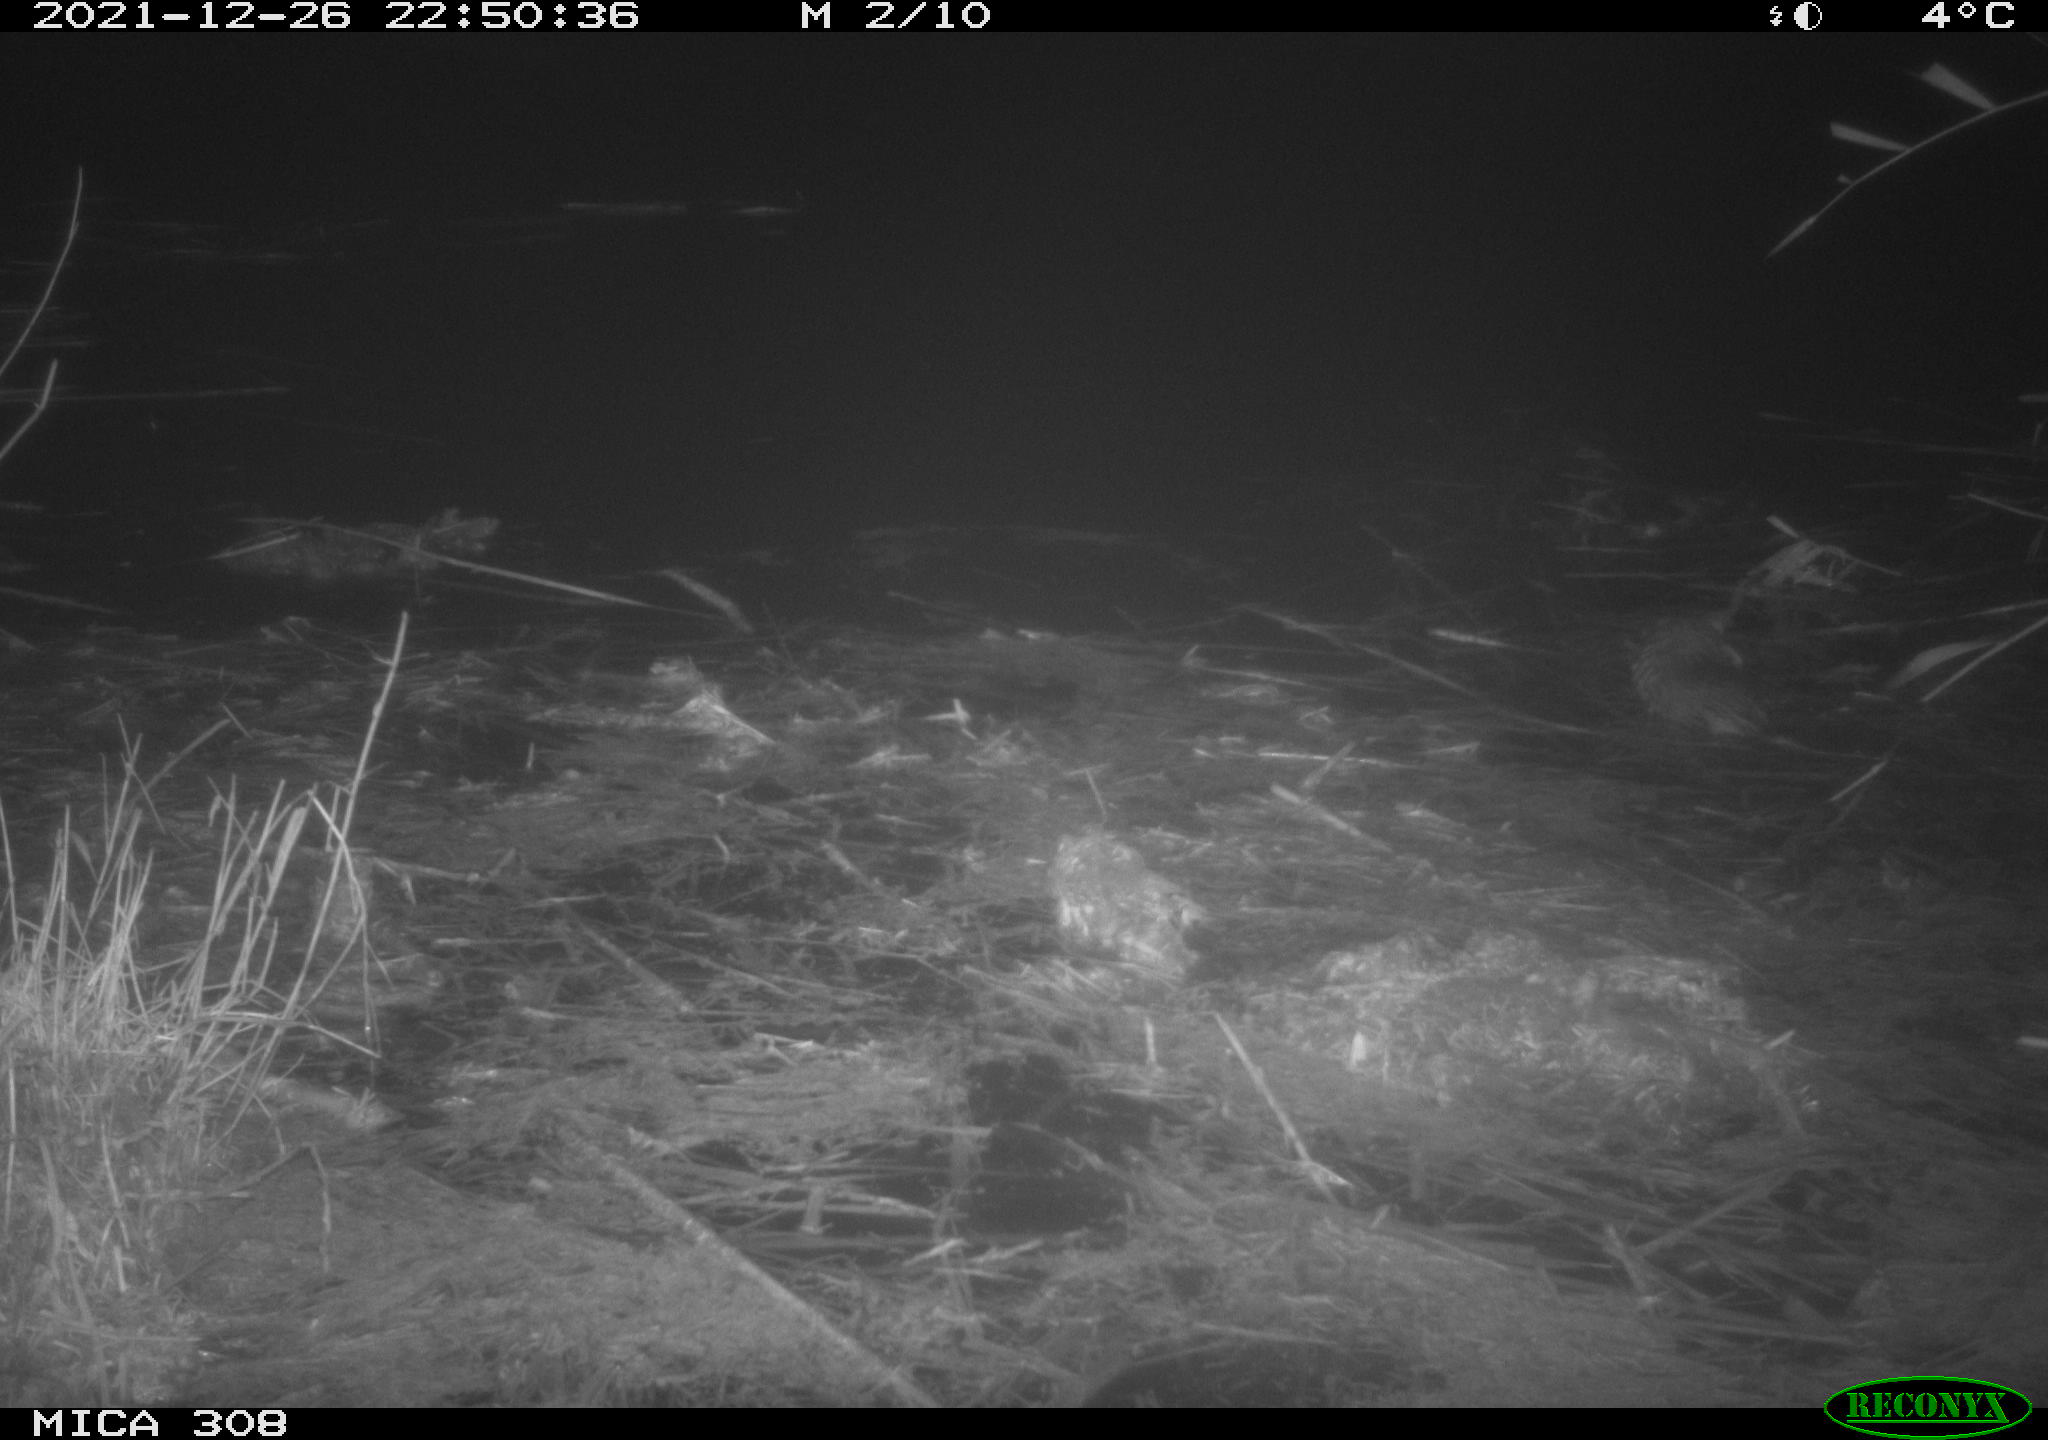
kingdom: Animalia
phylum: Chordata
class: Mammalia
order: Rodentia
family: Cricetidae
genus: Ondatra
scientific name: Ondatra zibethicus
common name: Muskrat
